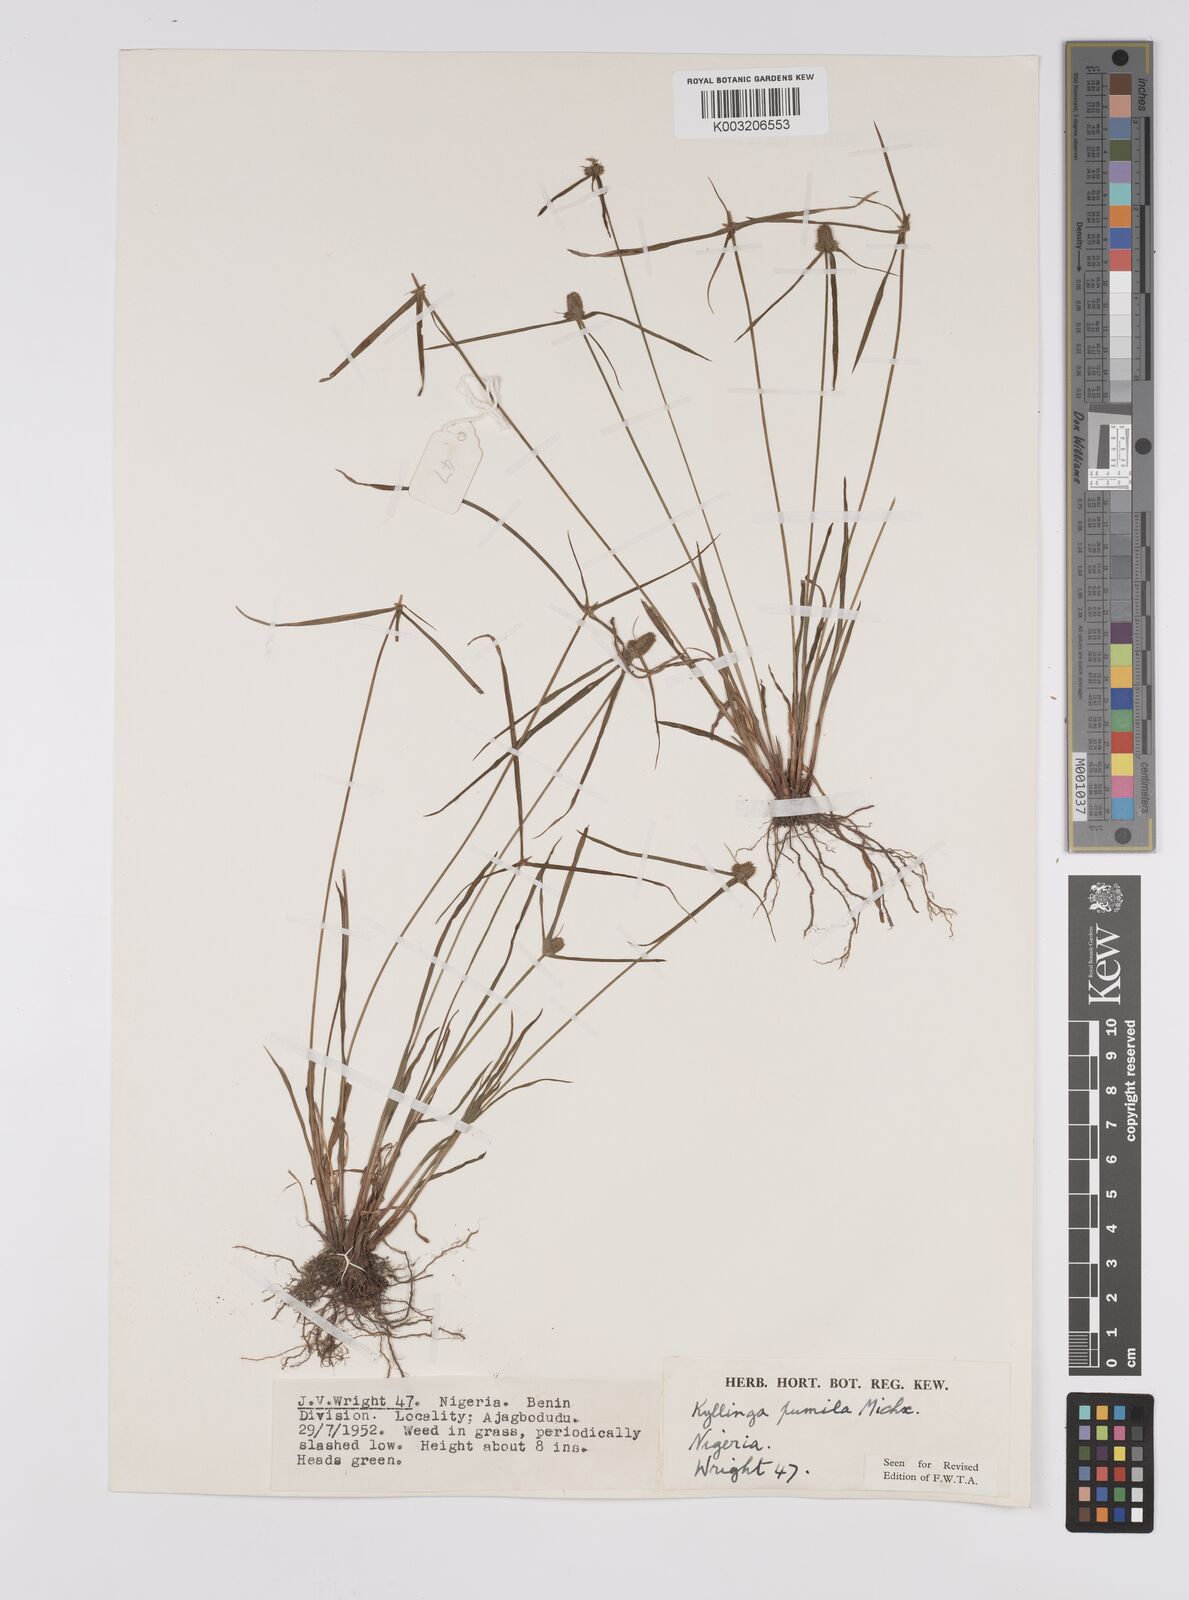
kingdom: Plantae
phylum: Tracheophyta
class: Liliopsida
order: Poales
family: Cyperaceae
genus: Cyperus
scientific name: Cyperus
